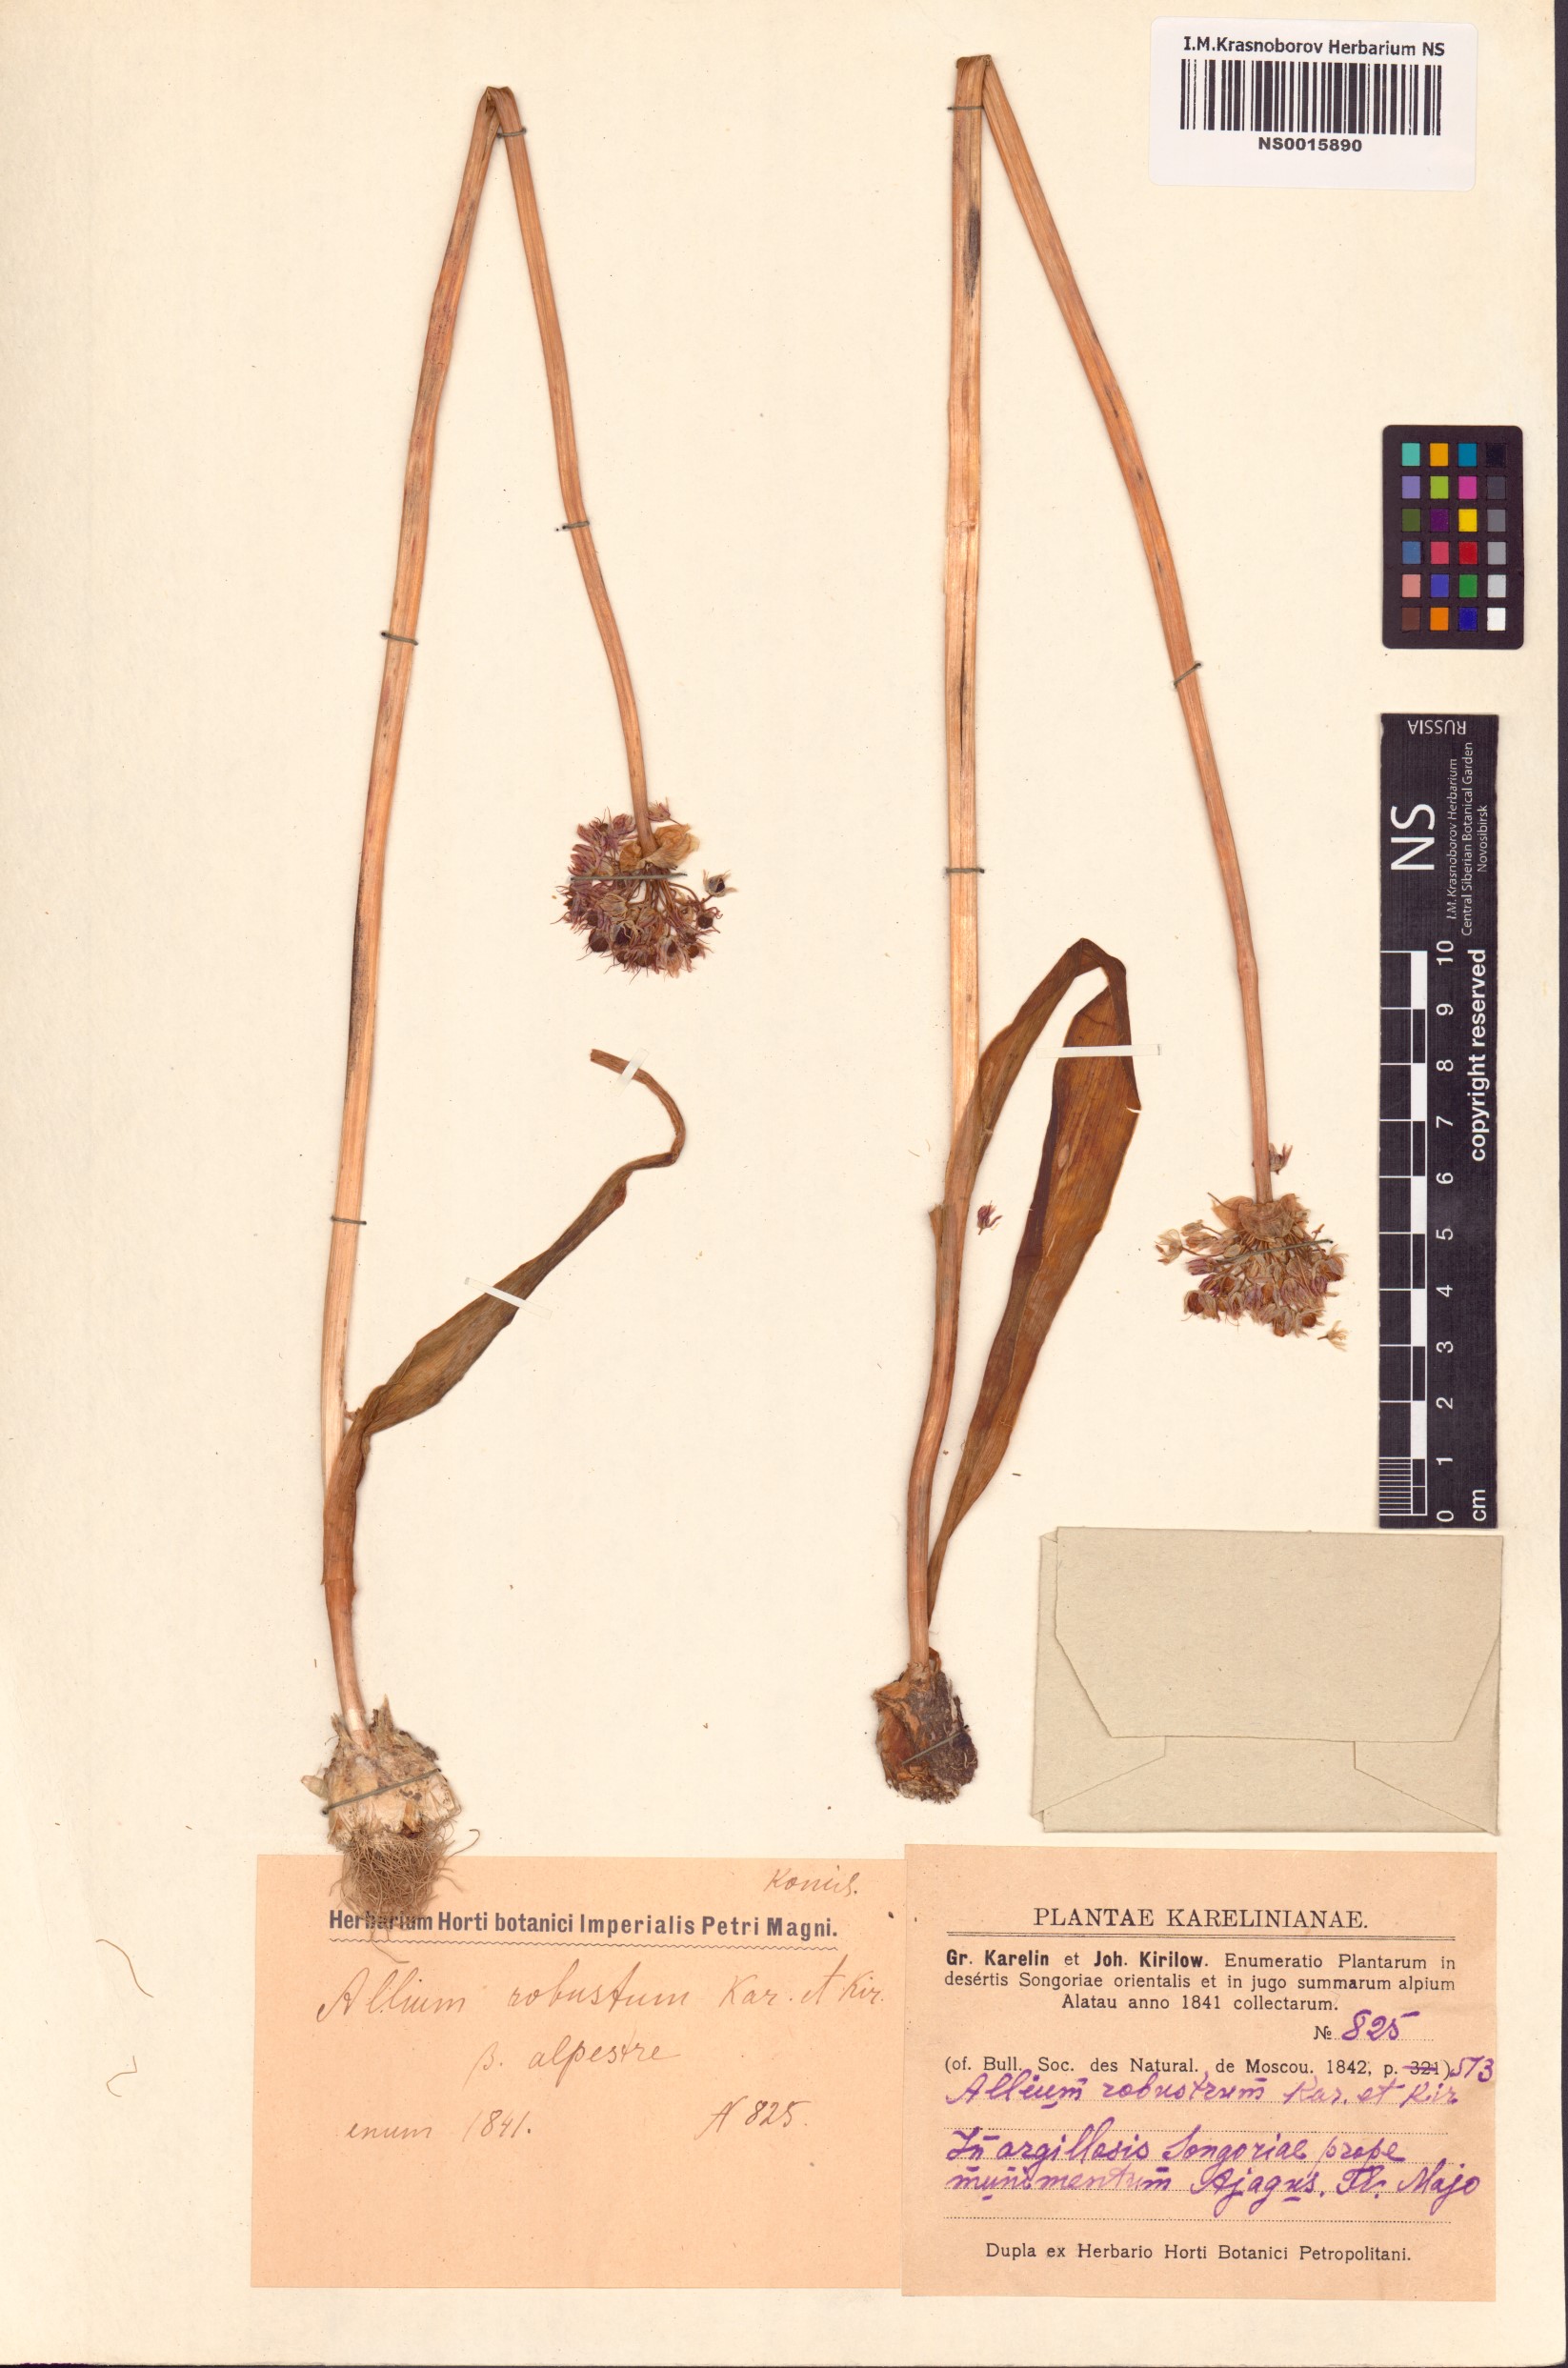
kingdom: Plantae
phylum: Tracheophyta
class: Liliopsida
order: Asparagales
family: Amaryllidaceae
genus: Allium
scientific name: Allium robustum
